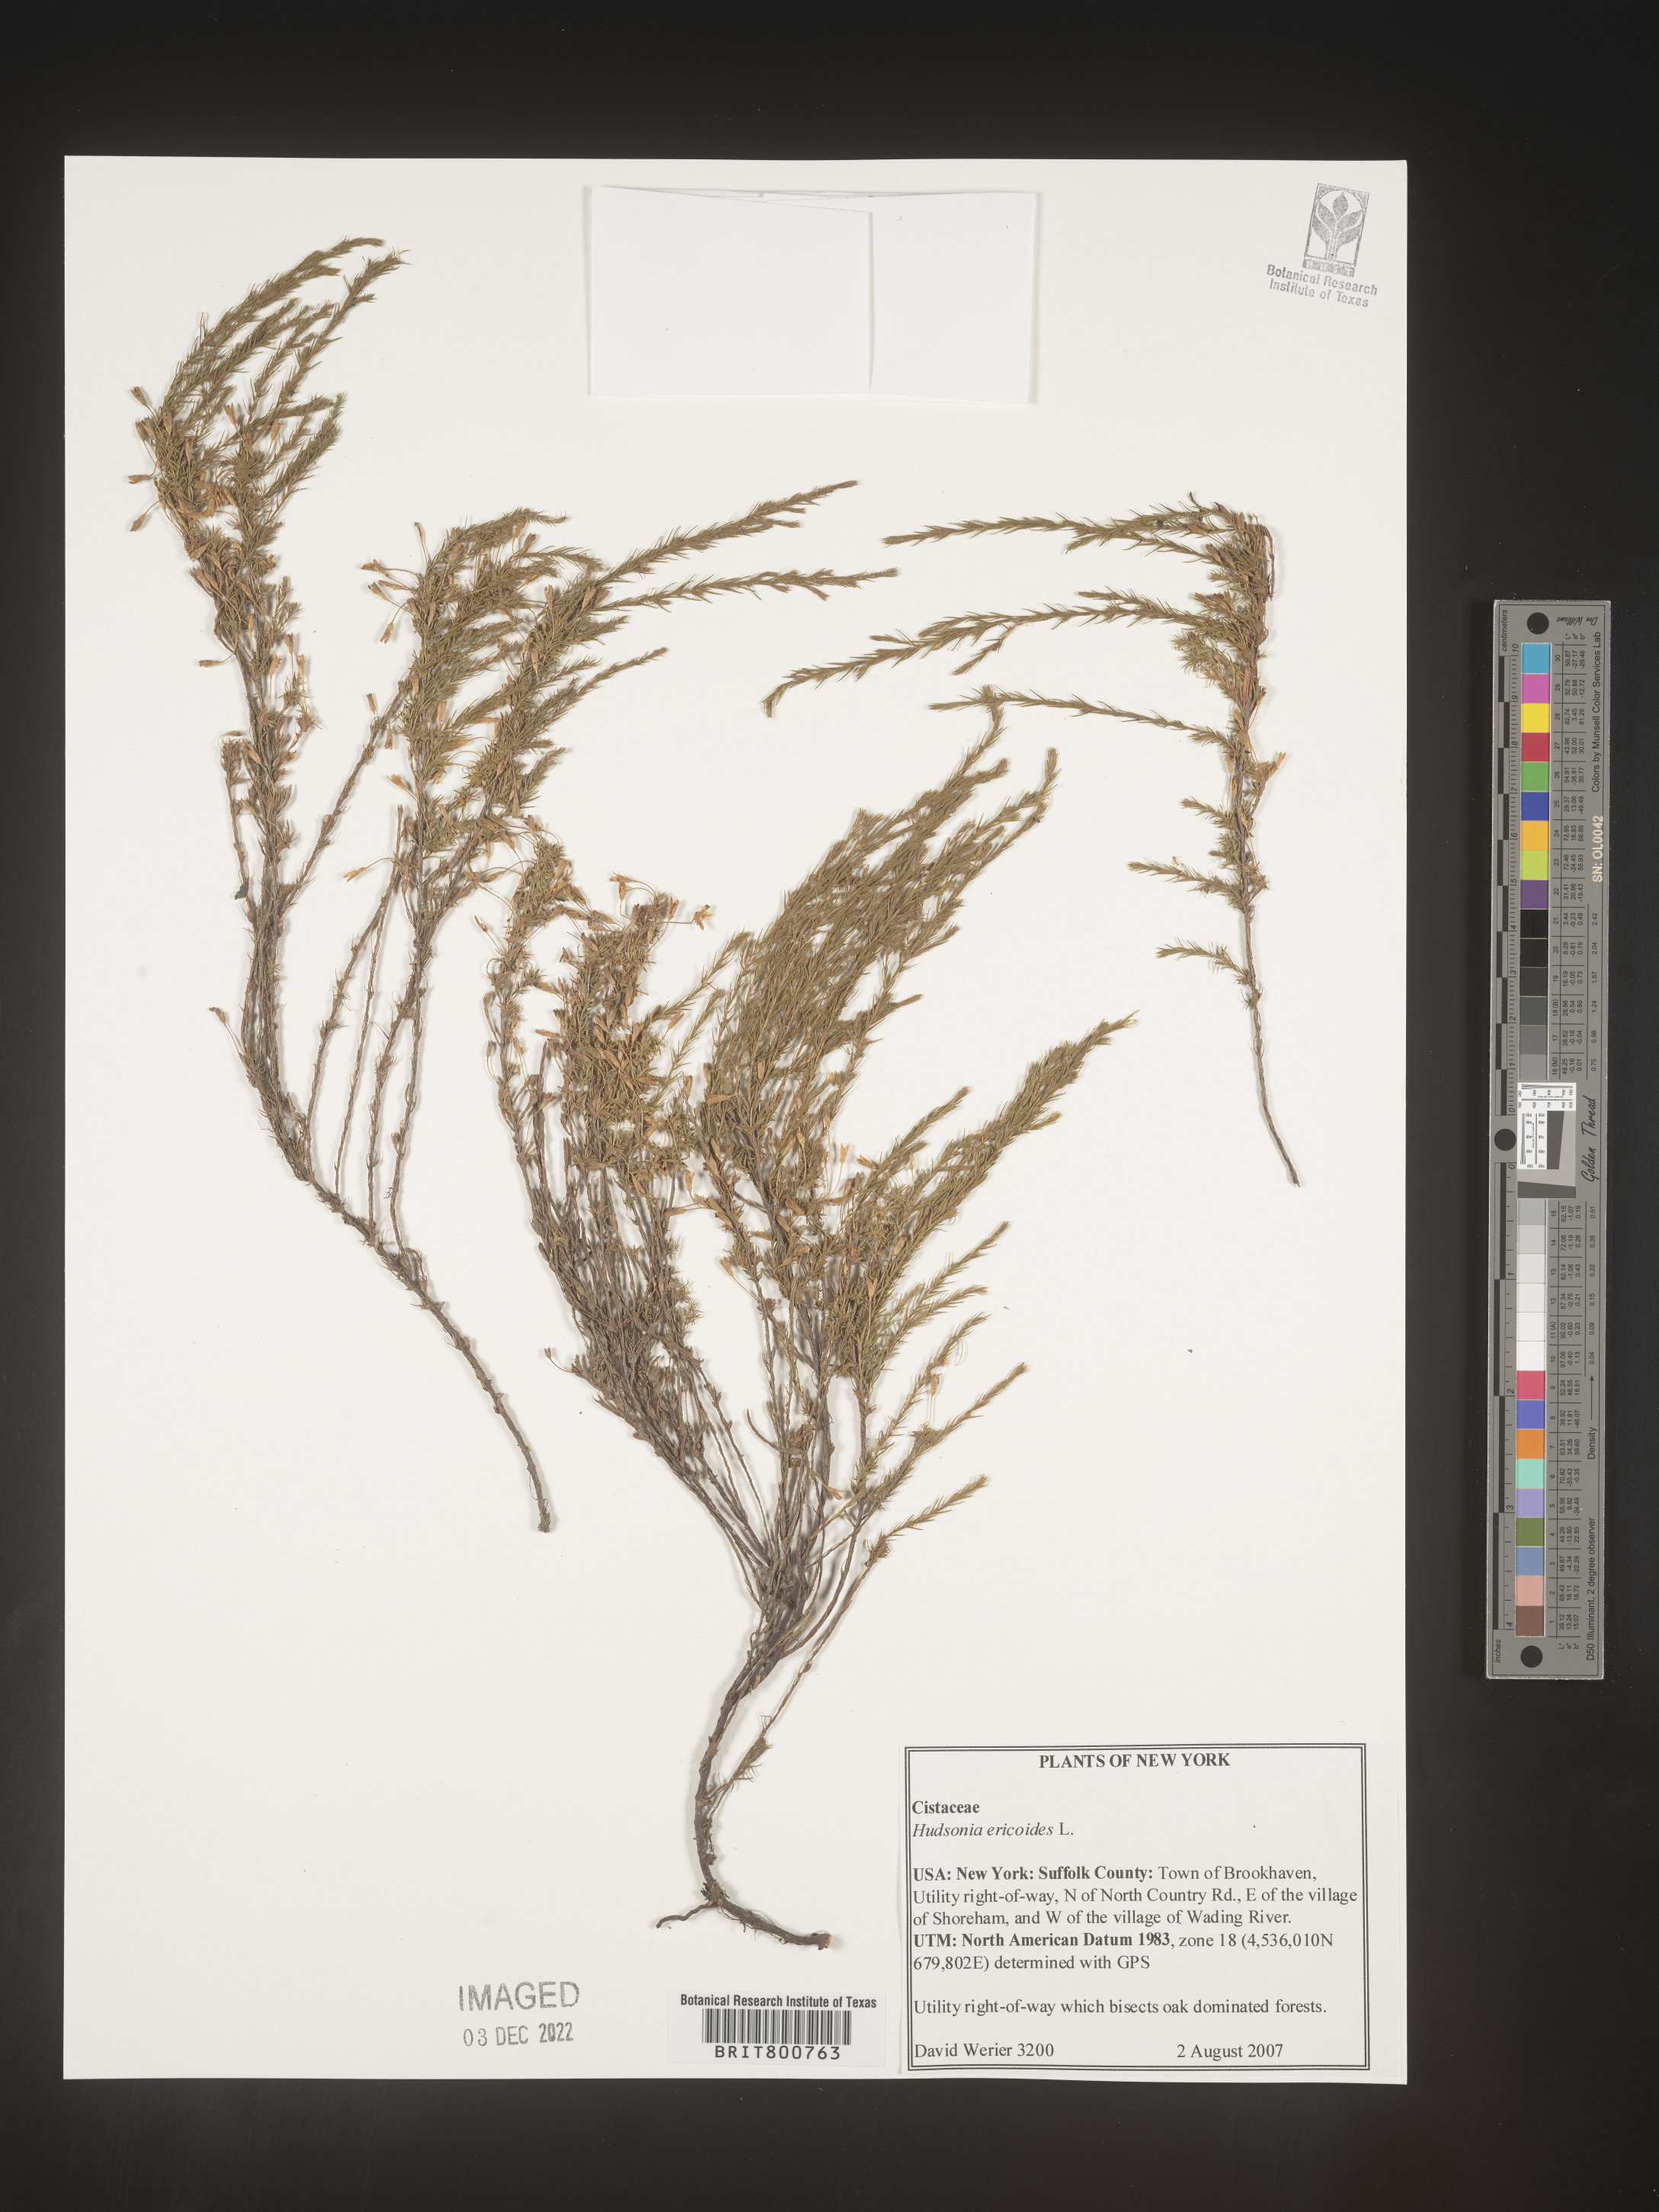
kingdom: Plantae
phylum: Tracheophyta
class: Magnoliopsida
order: Malvales
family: Cistaceae
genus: Hudsonia
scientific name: Hudsonia ericoides
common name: Golden-heather
